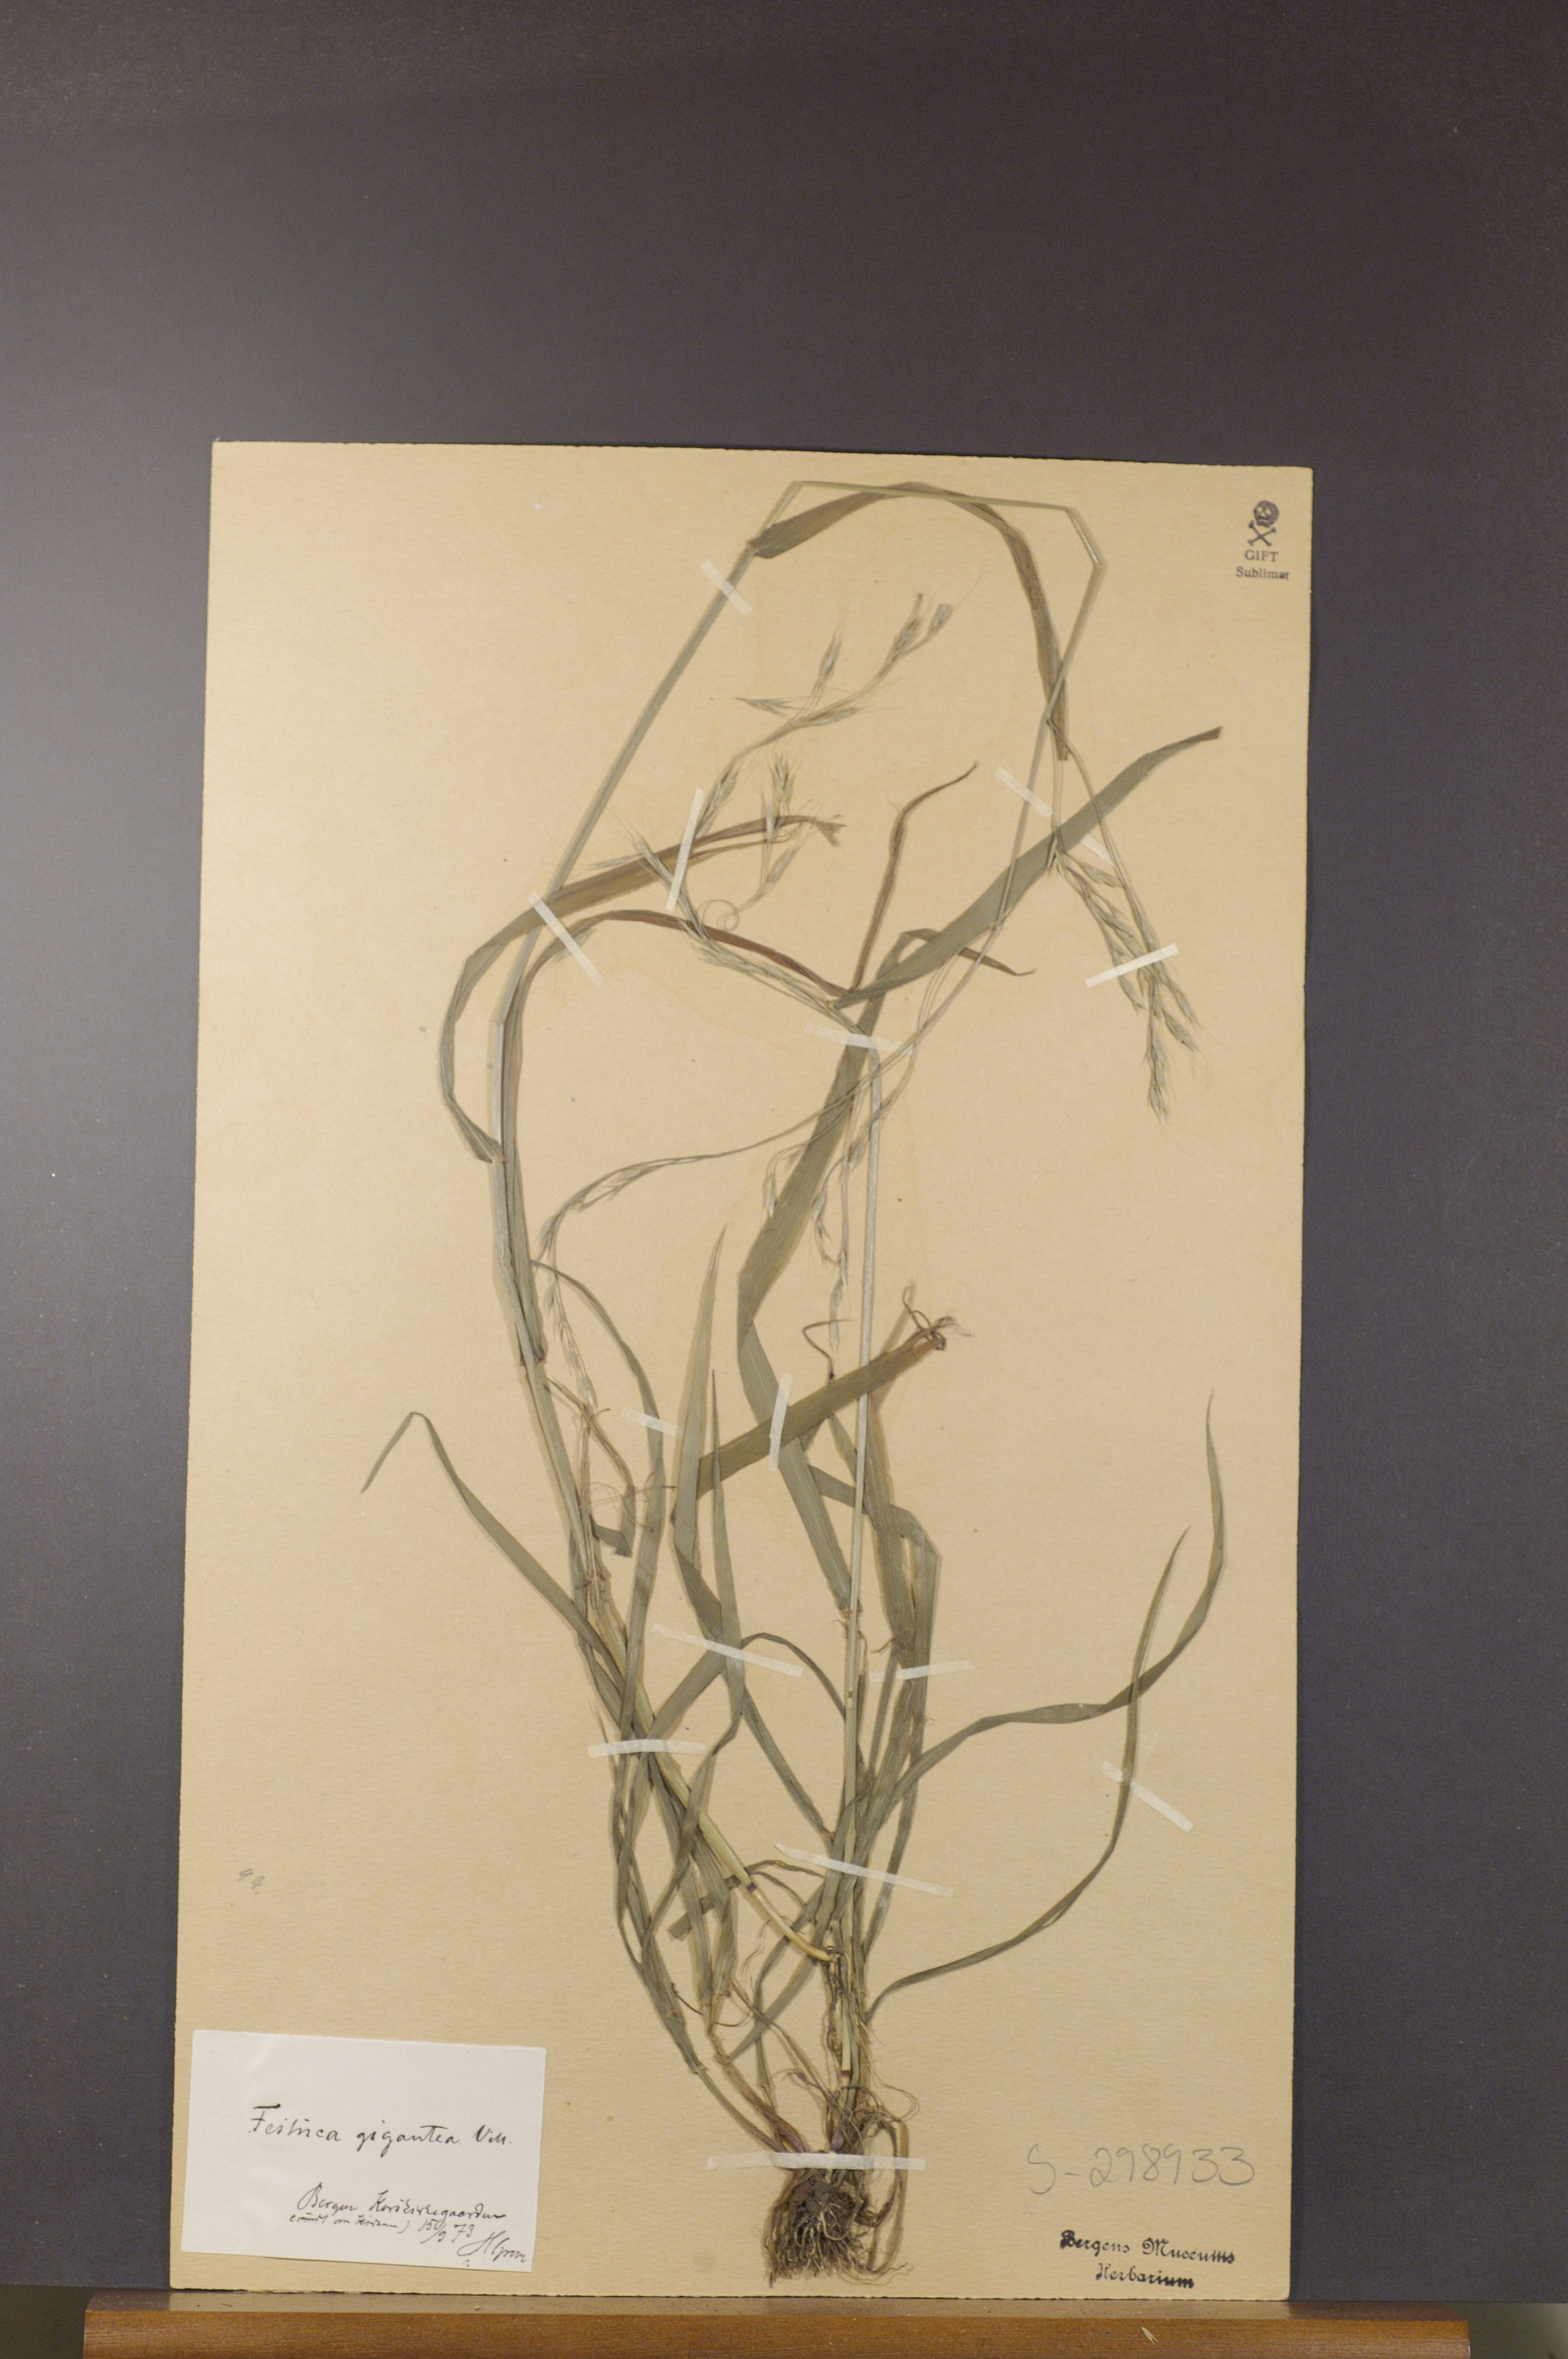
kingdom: Plantae
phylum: Tracheophyta
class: Liliopsida
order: Poales
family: Poaceae
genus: Lolium
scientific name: Lolium giganteum
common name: Giant fescue
